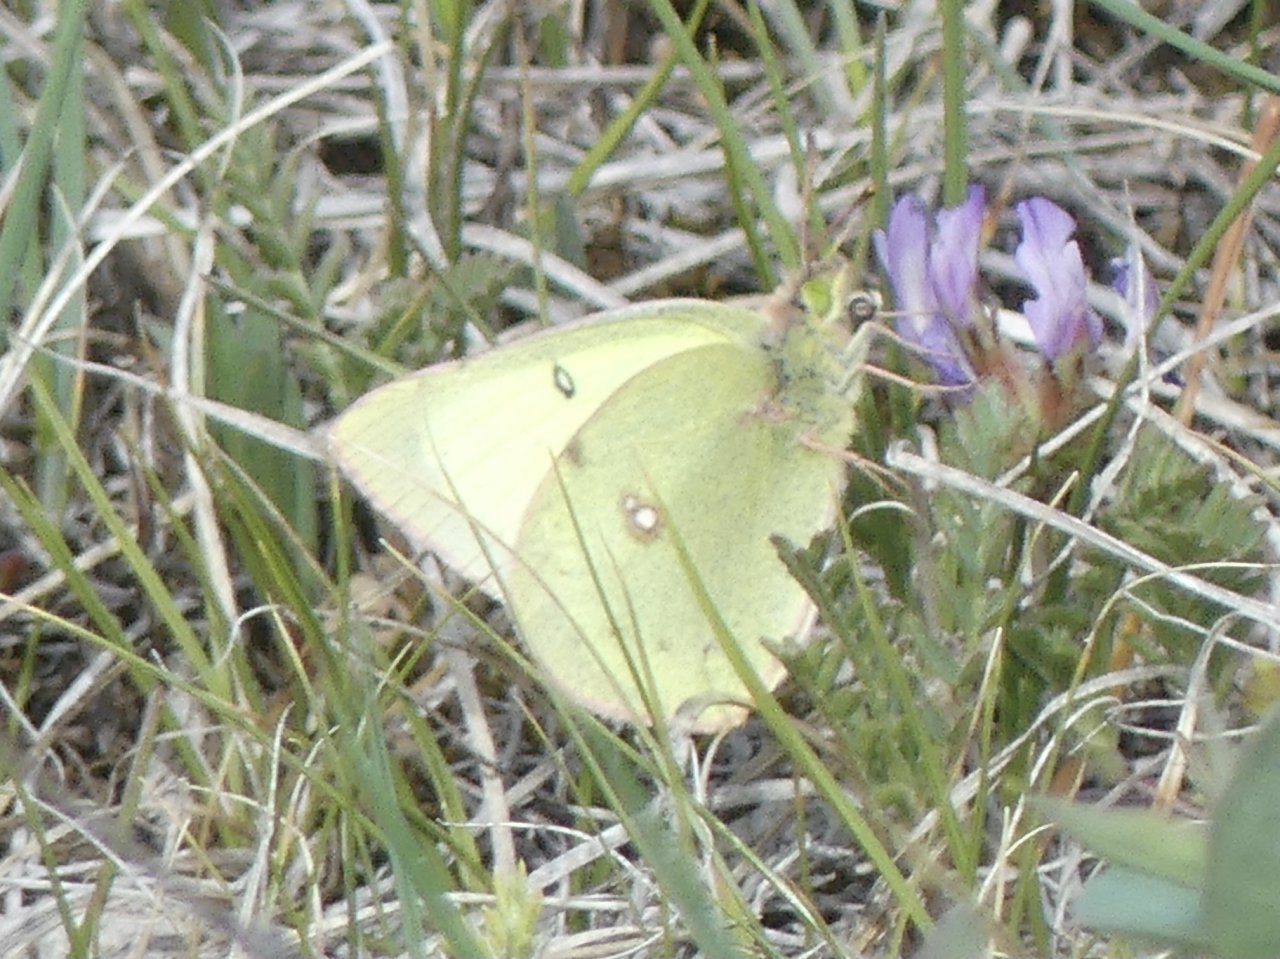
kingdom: Animalia
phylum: Arthropoda
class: Insecta
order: Lepidoptera
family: Pieridae
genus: Colias
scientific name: Colias philodice
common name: Clouded Sulphur
